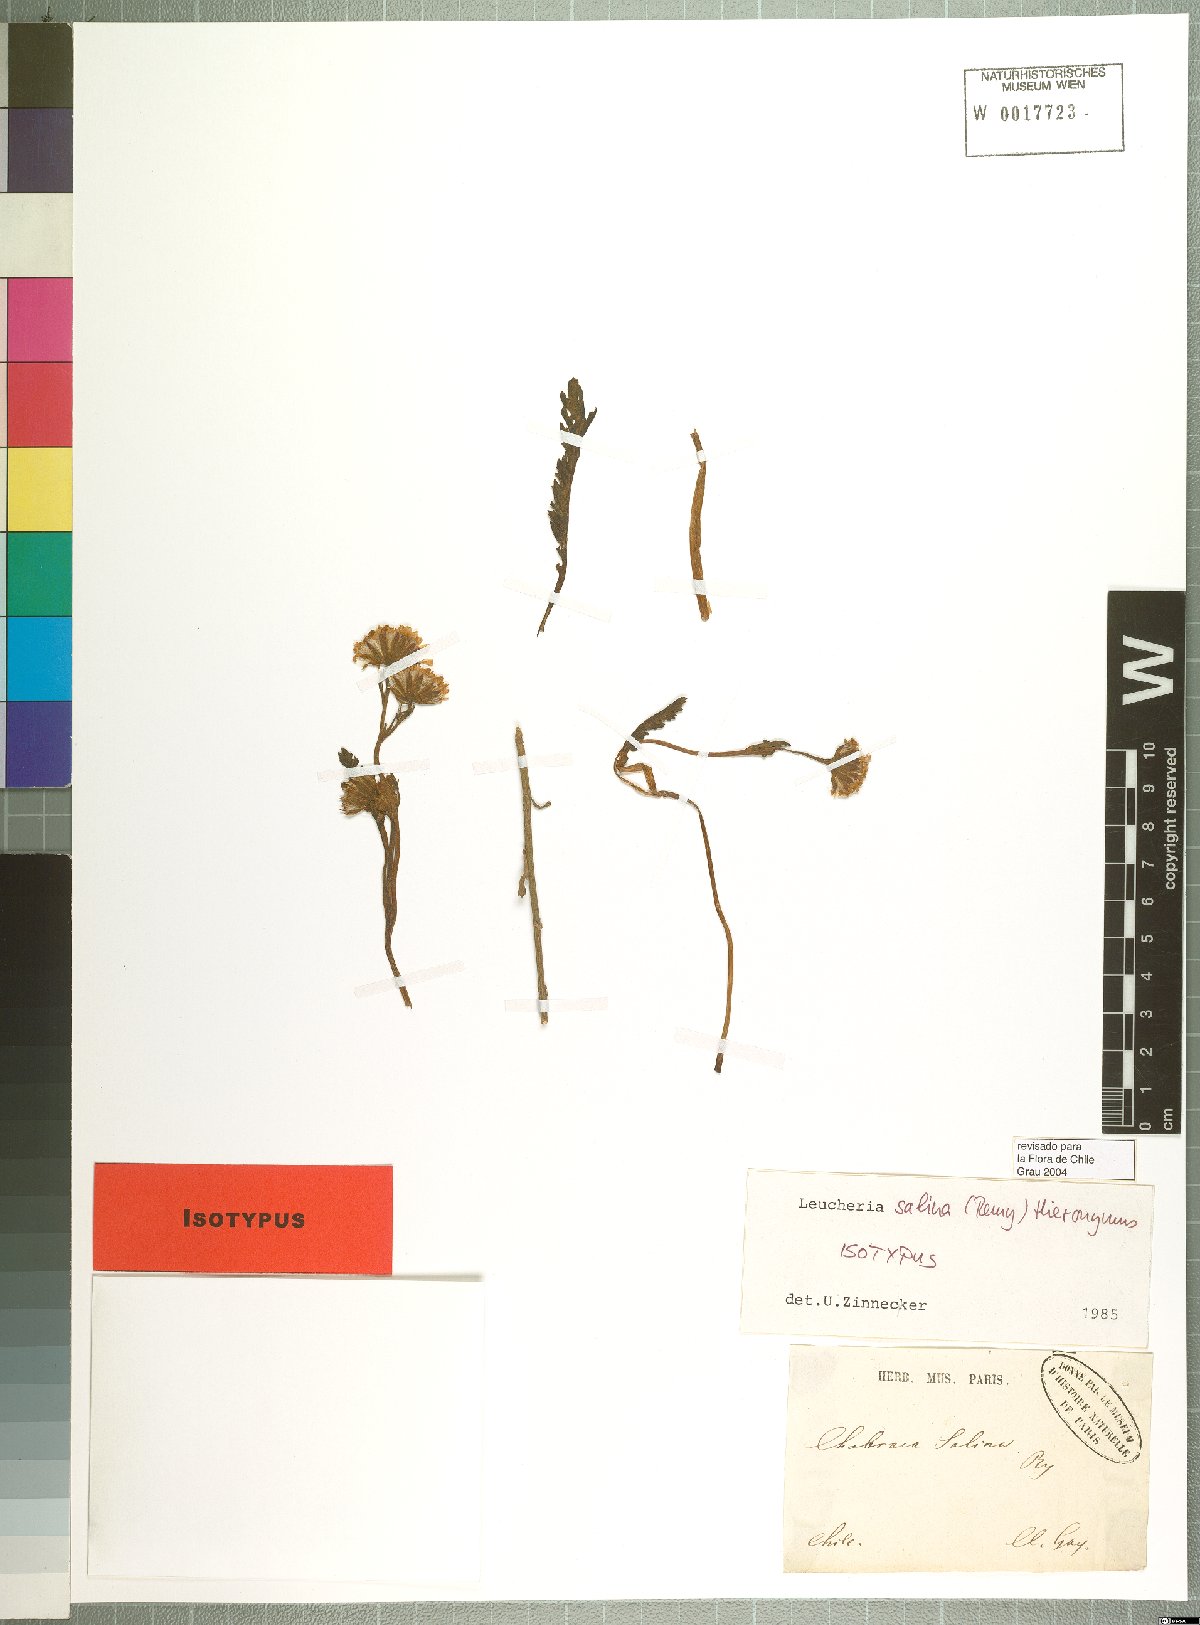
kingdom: Plantae
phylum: Tracheophyta
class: Magnoliopsida
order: Asterales
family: Asteraceae
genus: Leucheria
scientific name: Leucheria salina
